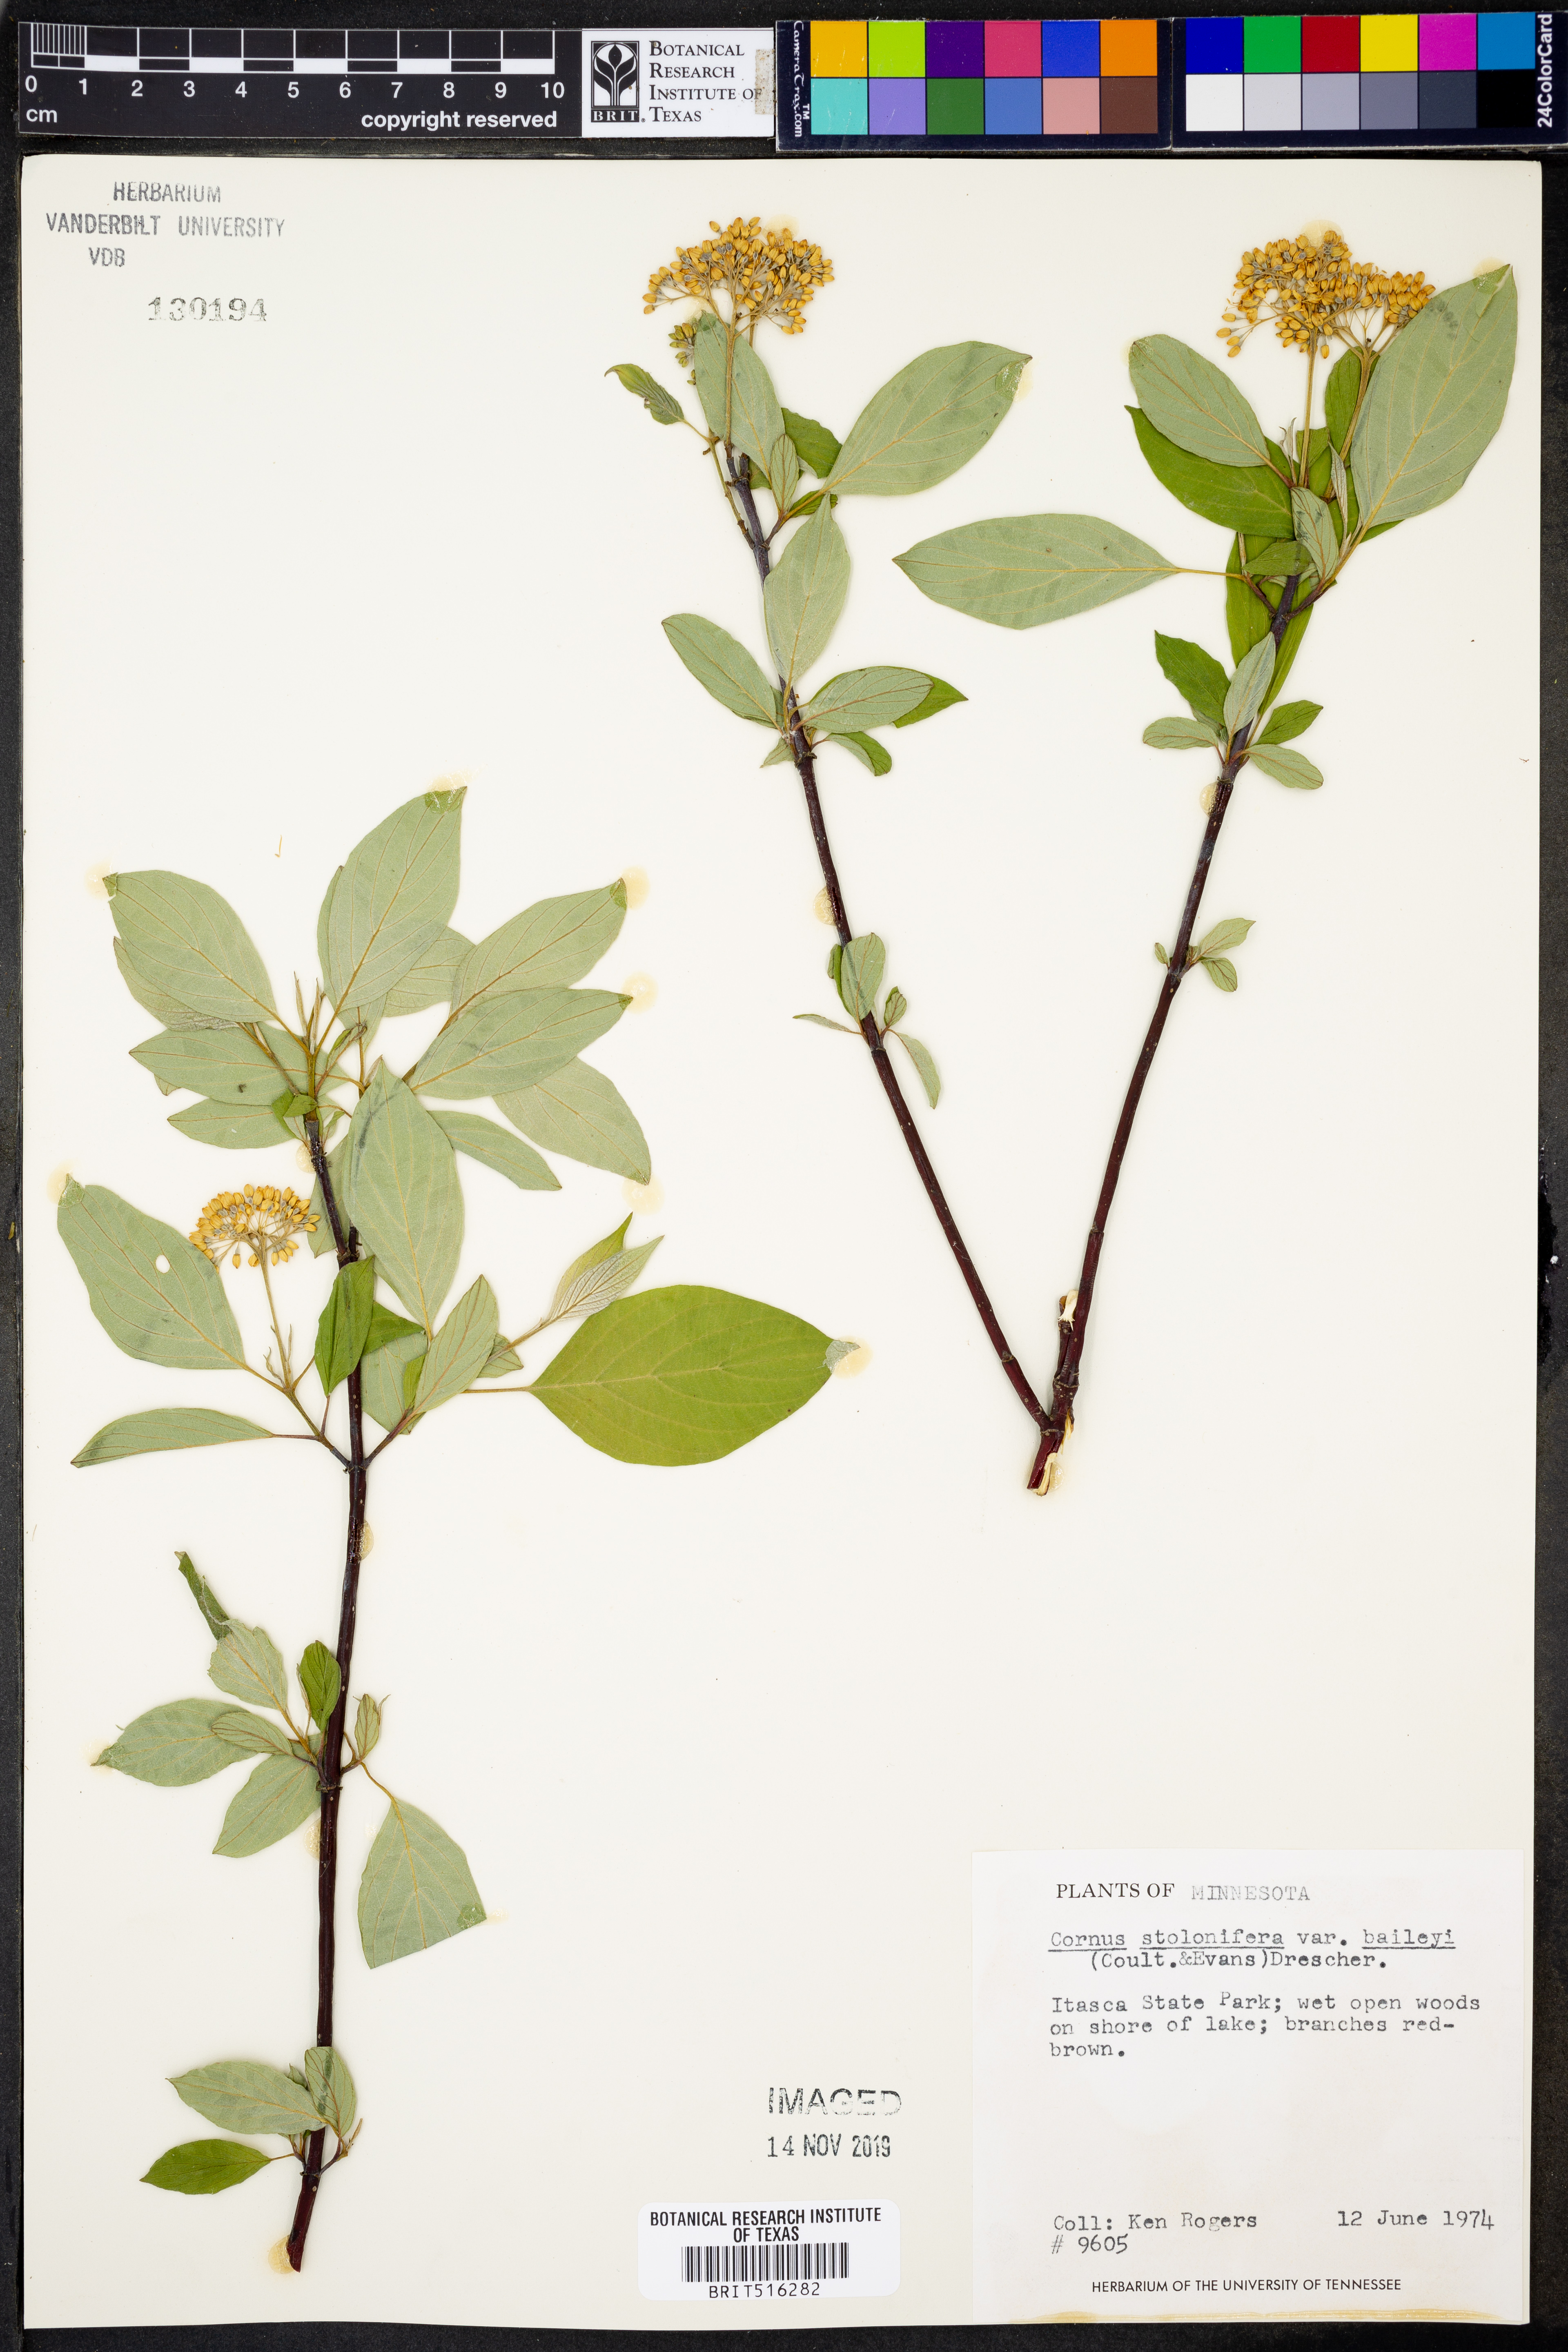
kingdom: Plantae
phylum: Tracheophyta
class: Magnoliopsida
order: Cornales
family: Cornaceae
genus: Cornus
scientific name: Cornus sericea
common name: Red-osier dogwood
